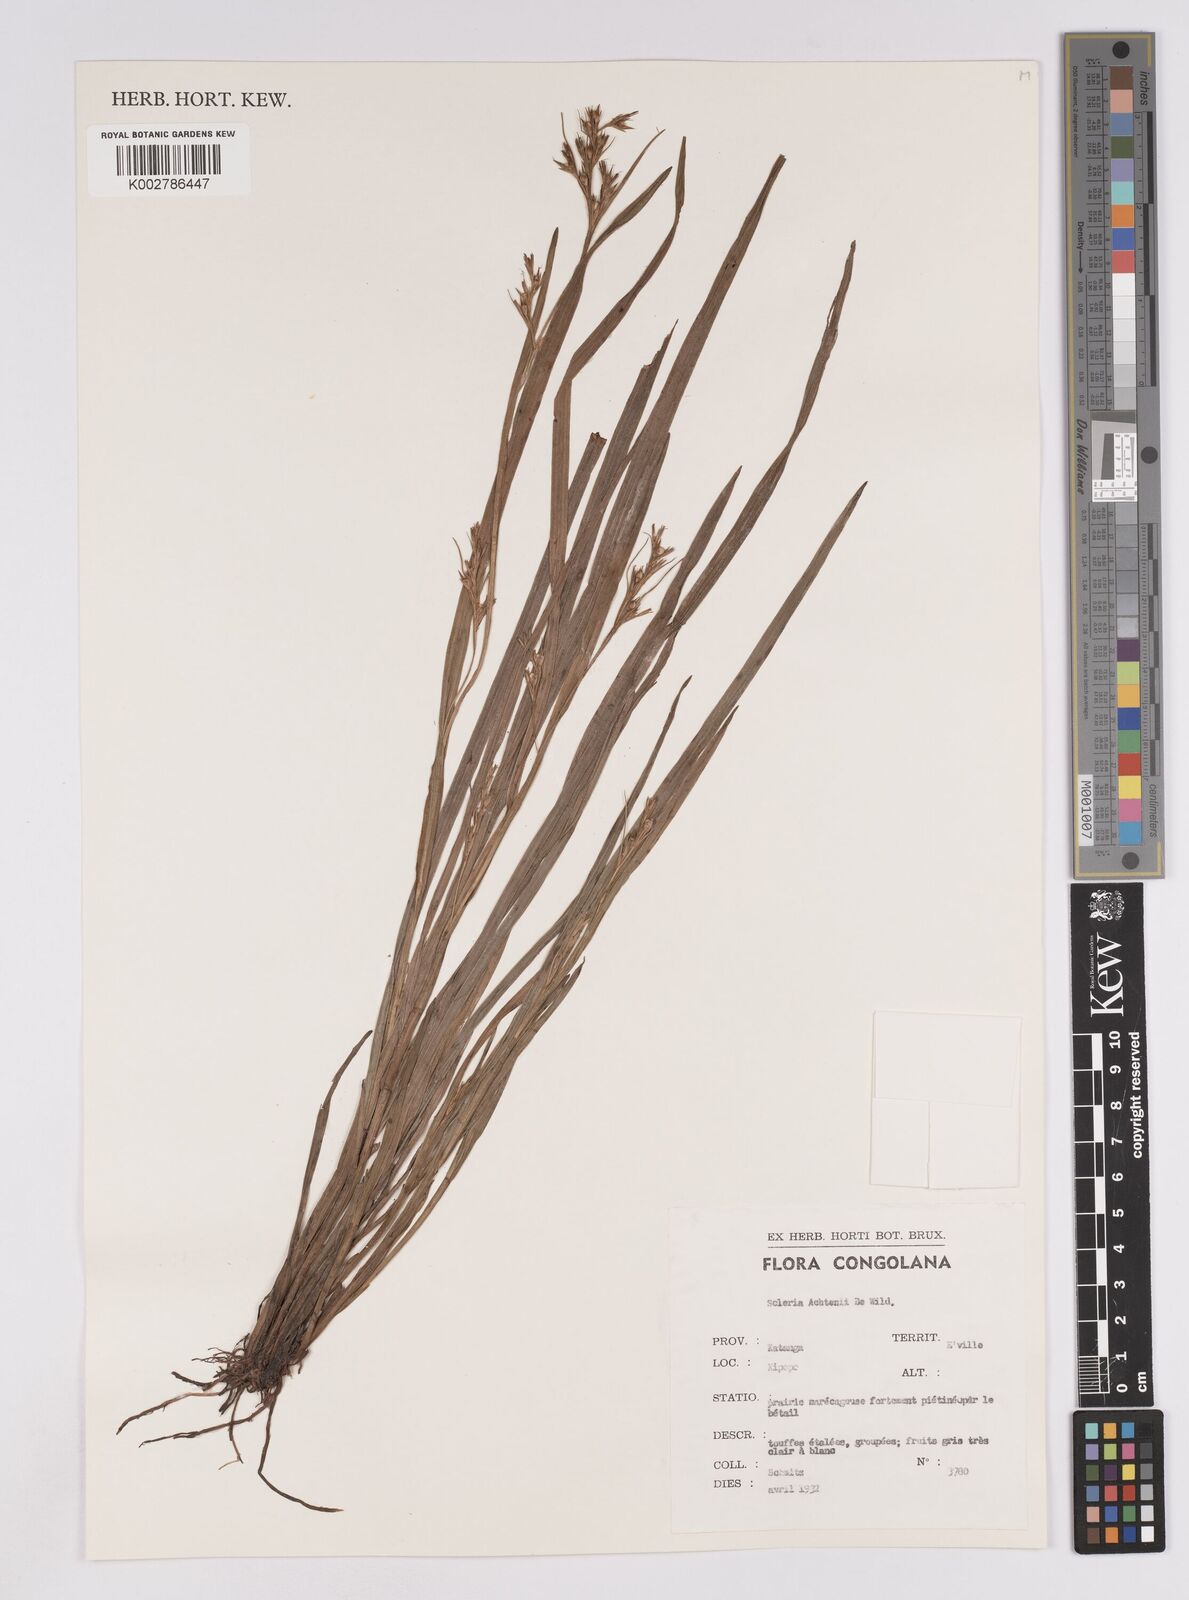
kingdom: Plantae
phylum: Tracheophyta
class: Liliopsida
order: Poales
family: Cyperaceae
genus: Scleria
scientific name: Scleria achtenii
